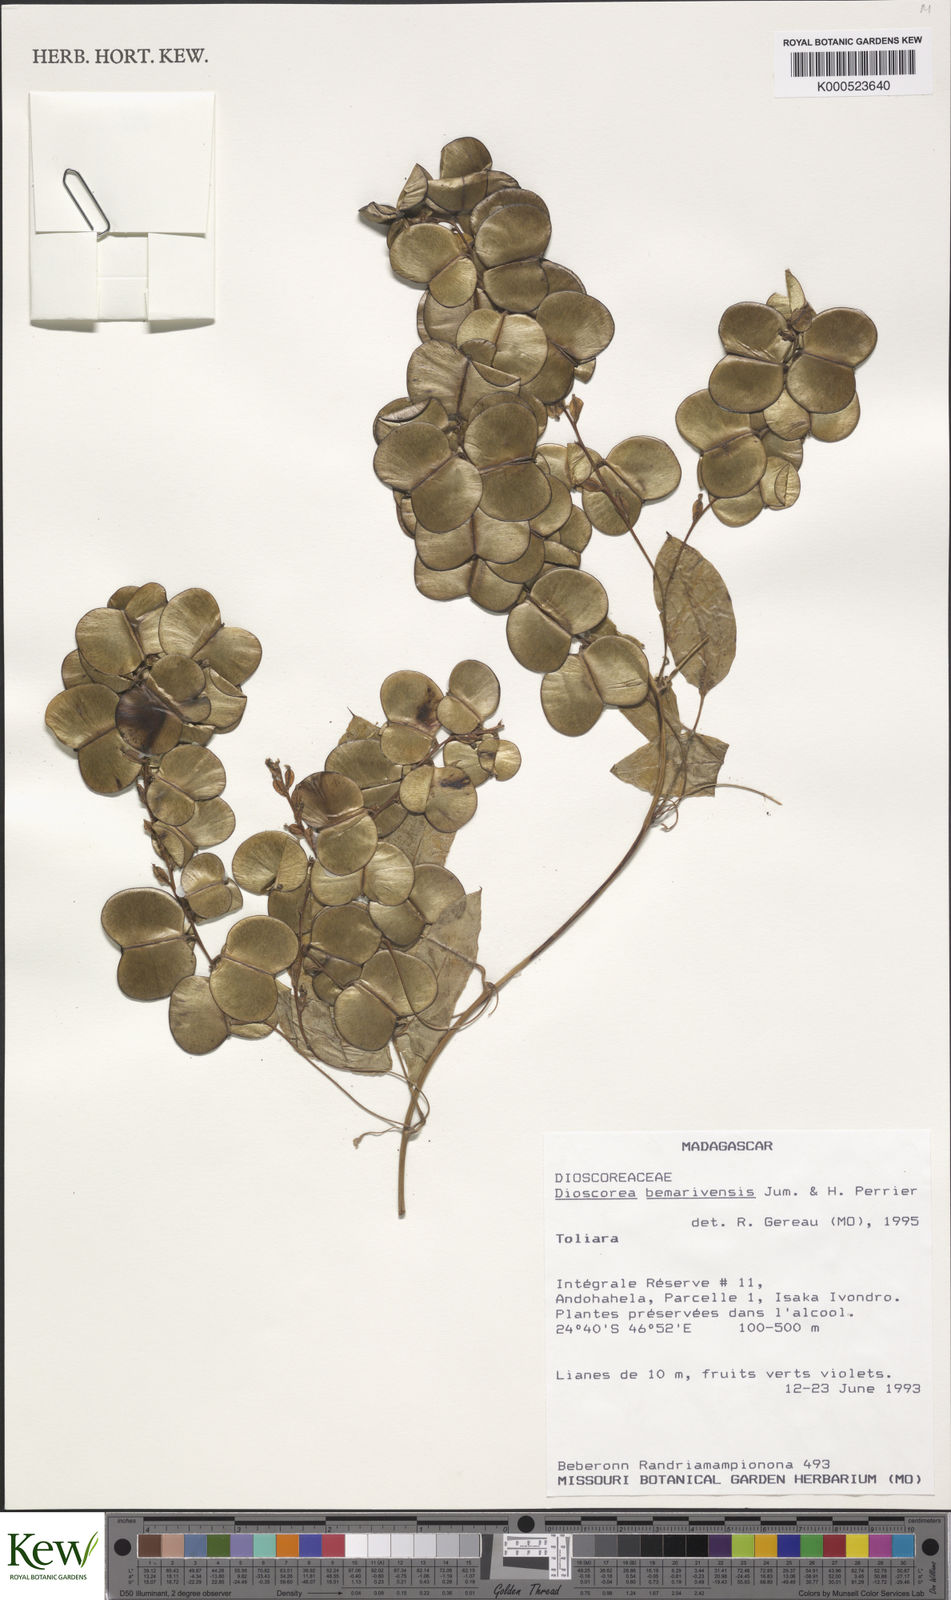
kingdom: Plantae
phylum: Tracheophyta
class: Liliopsida
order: Dioscoreales
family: Dioscoreaceae
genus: Dioscorea
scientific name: Dioscorea bemarivensis
